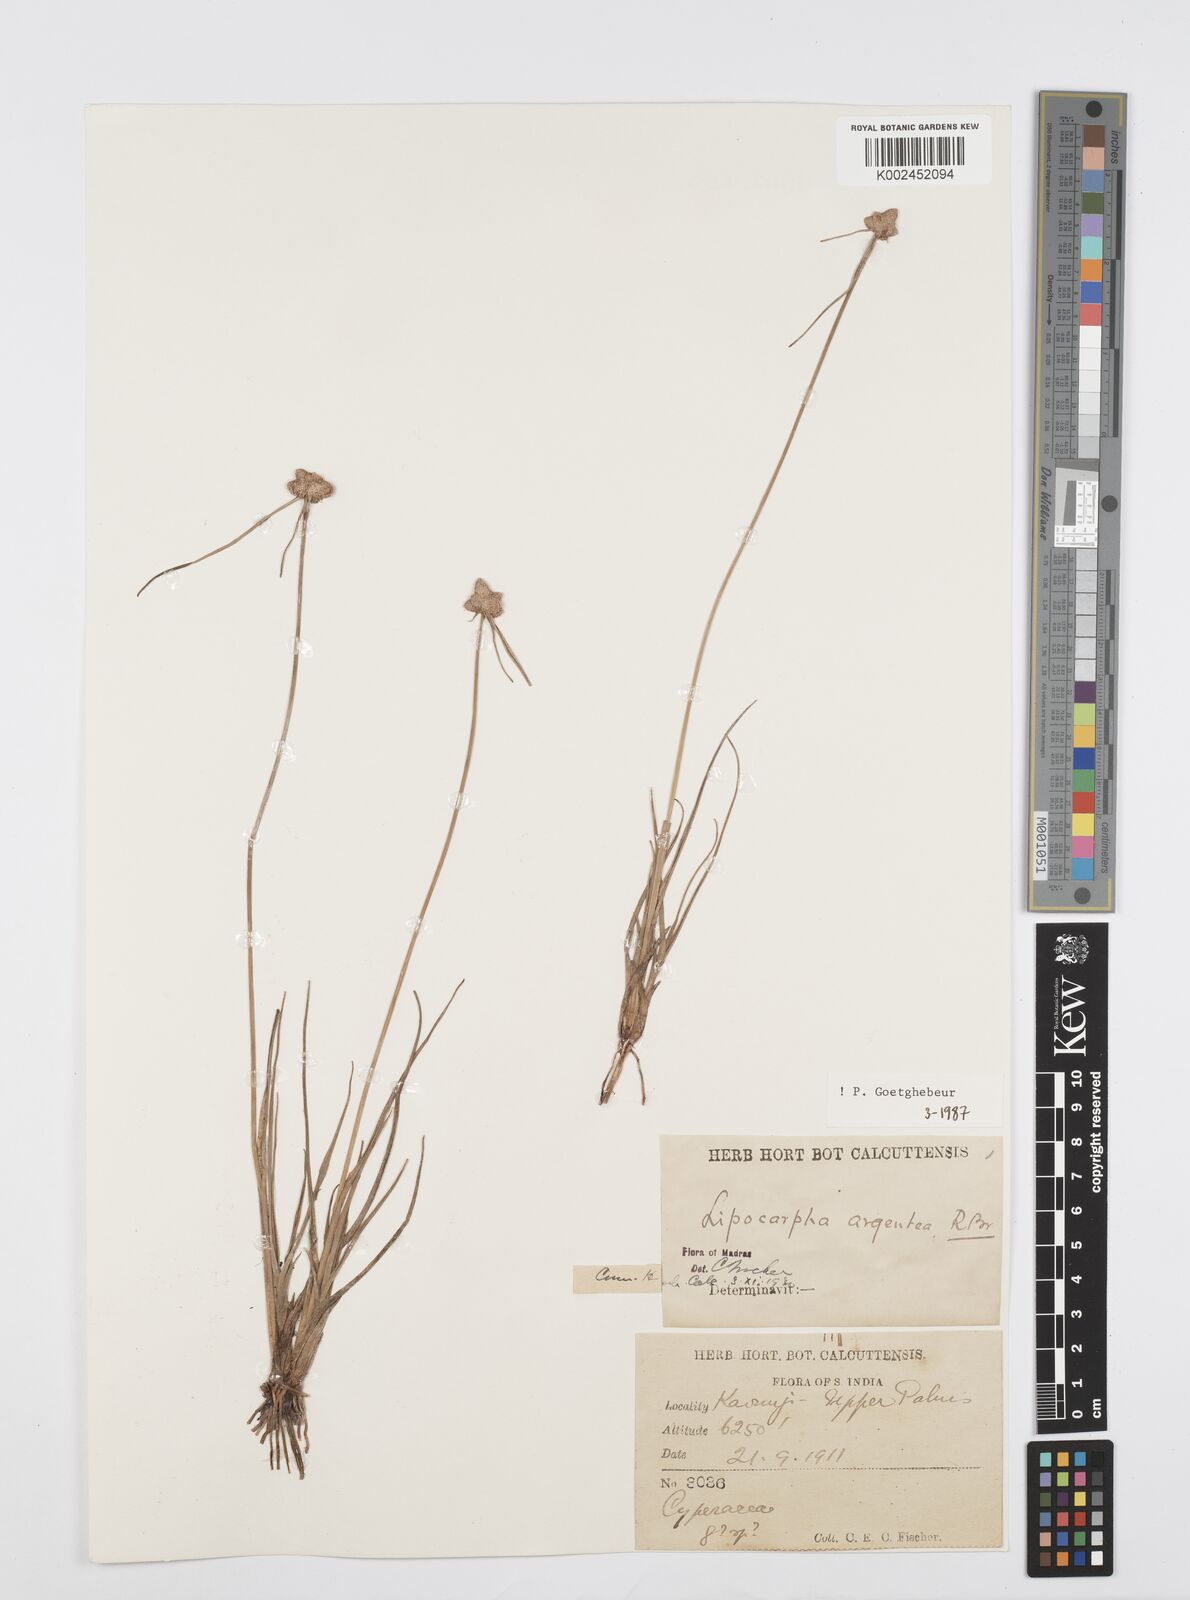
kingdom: Plantae
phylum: Tracheophyta
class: Liliopsida
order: Poales
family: Cyperaceae
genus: Cyperus
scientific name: Cyperus
